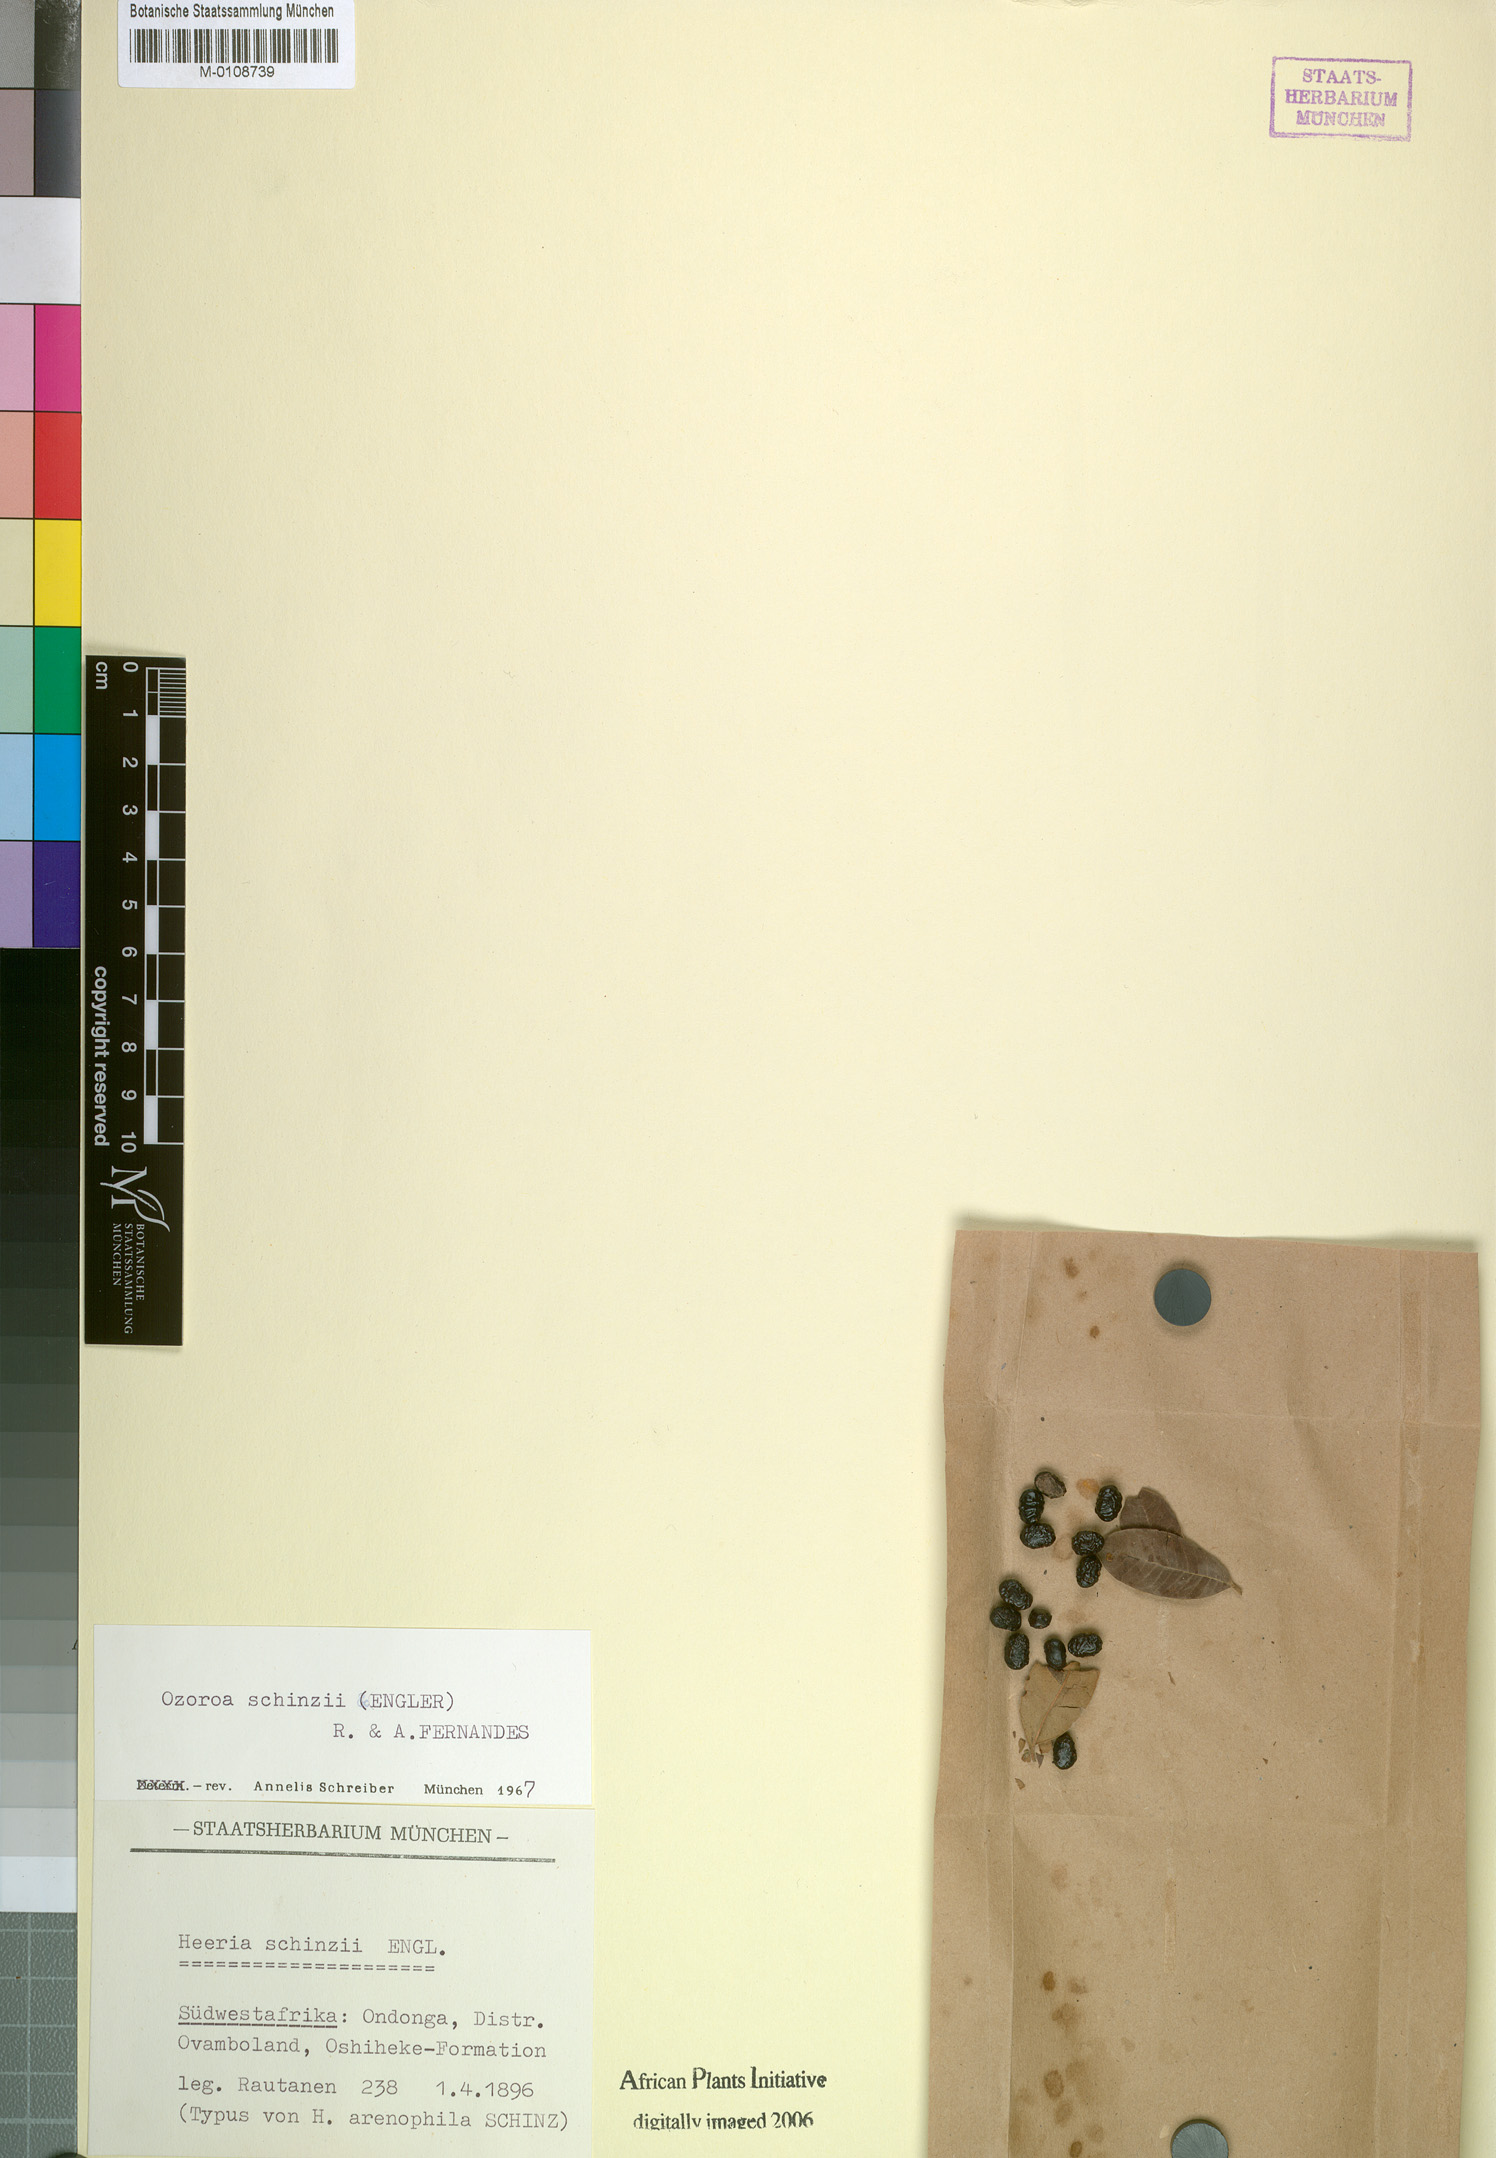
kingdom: Plantae
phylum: Tracheophyta
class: Magnoliopsida
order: Sapindales
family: Anacardiaceae
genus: Ozoroa
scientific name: Ozoroa schinzii
